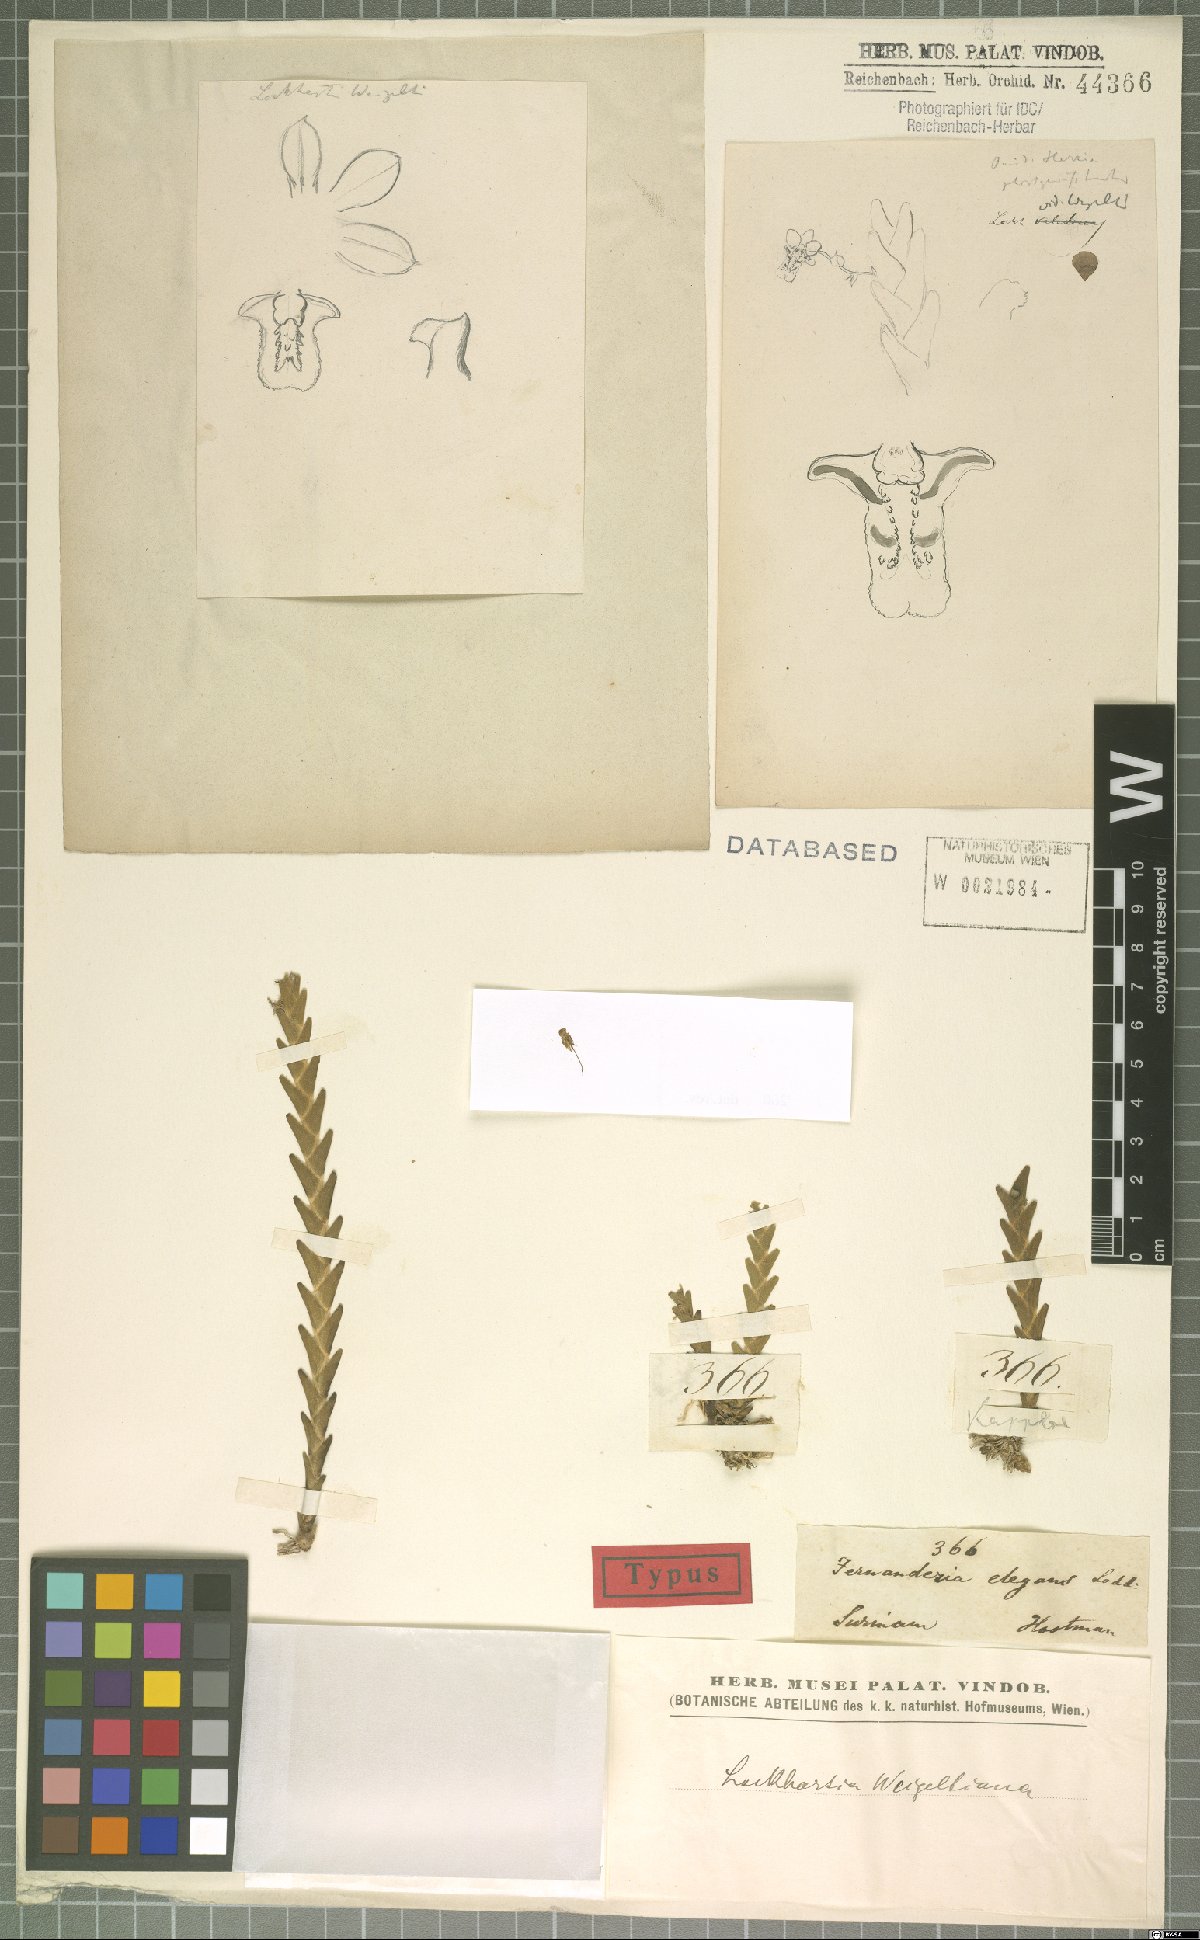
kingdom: Plantae
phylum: Tracheophyta
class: Liliopsida
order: Asparagales
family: Orchidaceae
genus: Lockhartia
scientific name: Lockhartia imbricata
